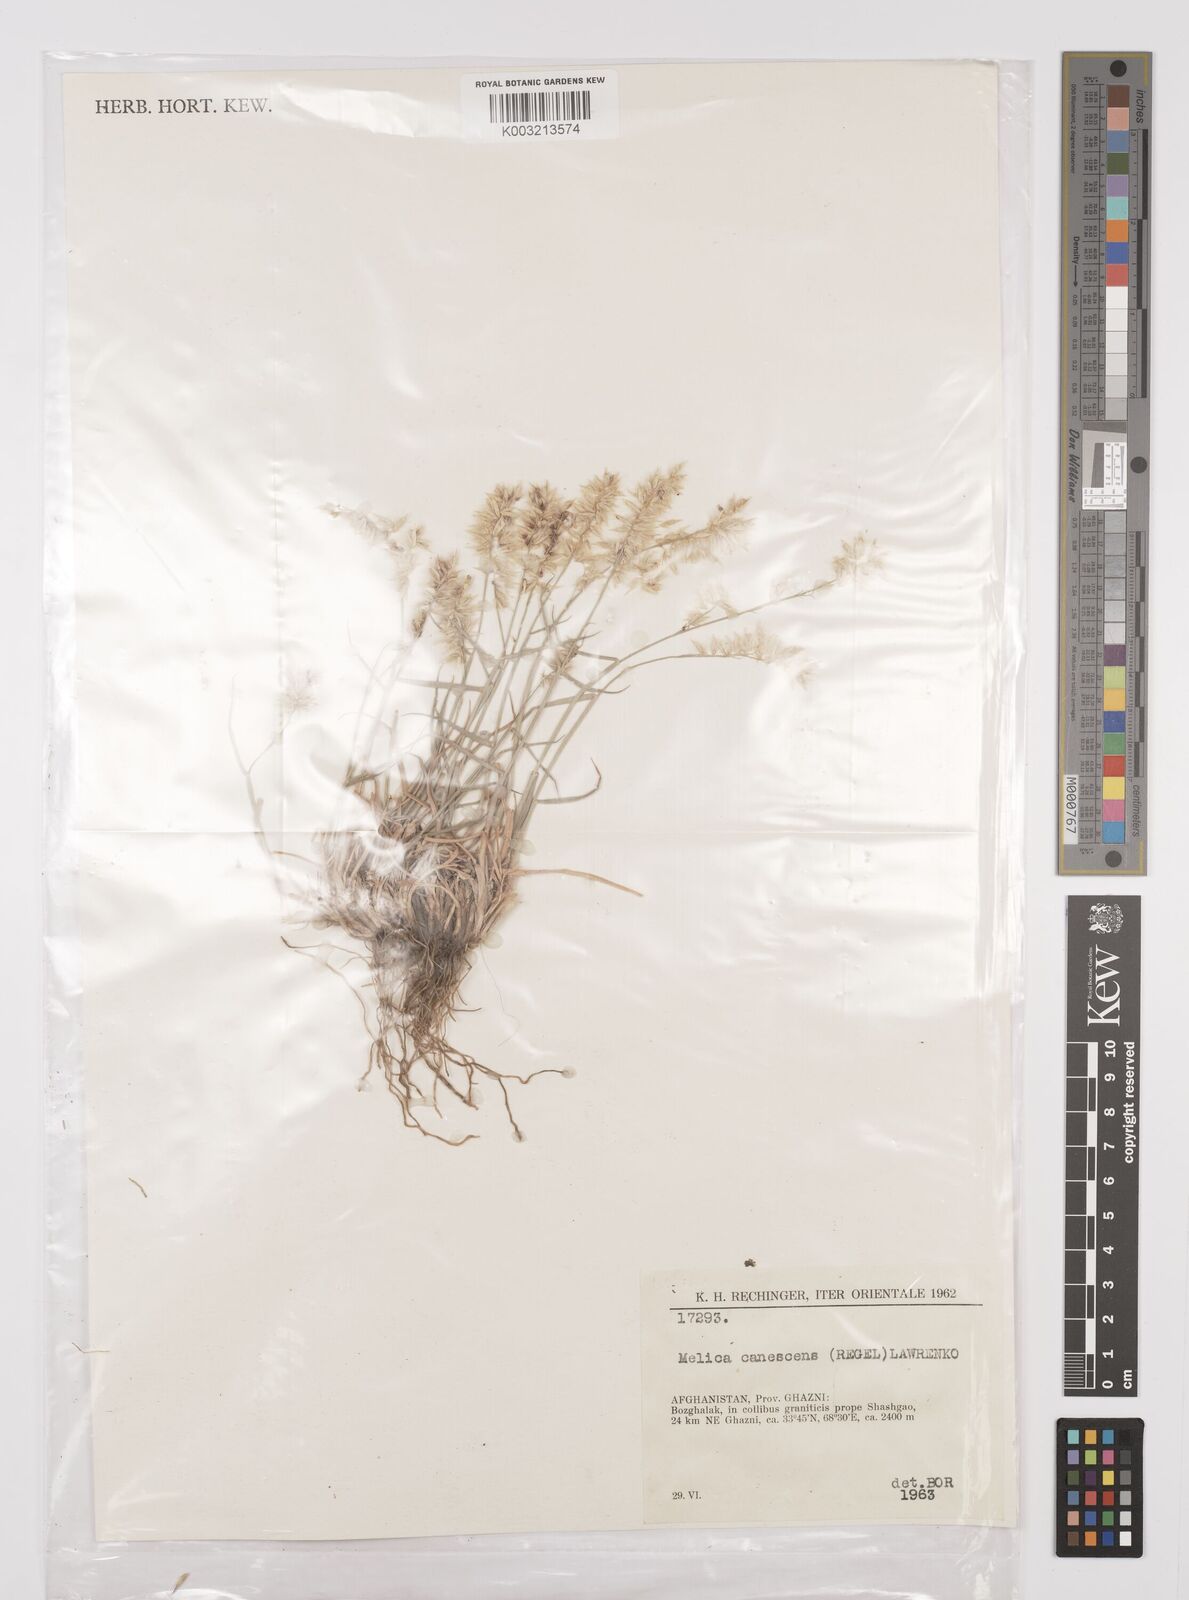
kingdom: Plantae
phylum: Tracheophyta
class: Liliopsida
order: Poales
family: Poaceae
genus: Melica
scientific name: Melica persica
